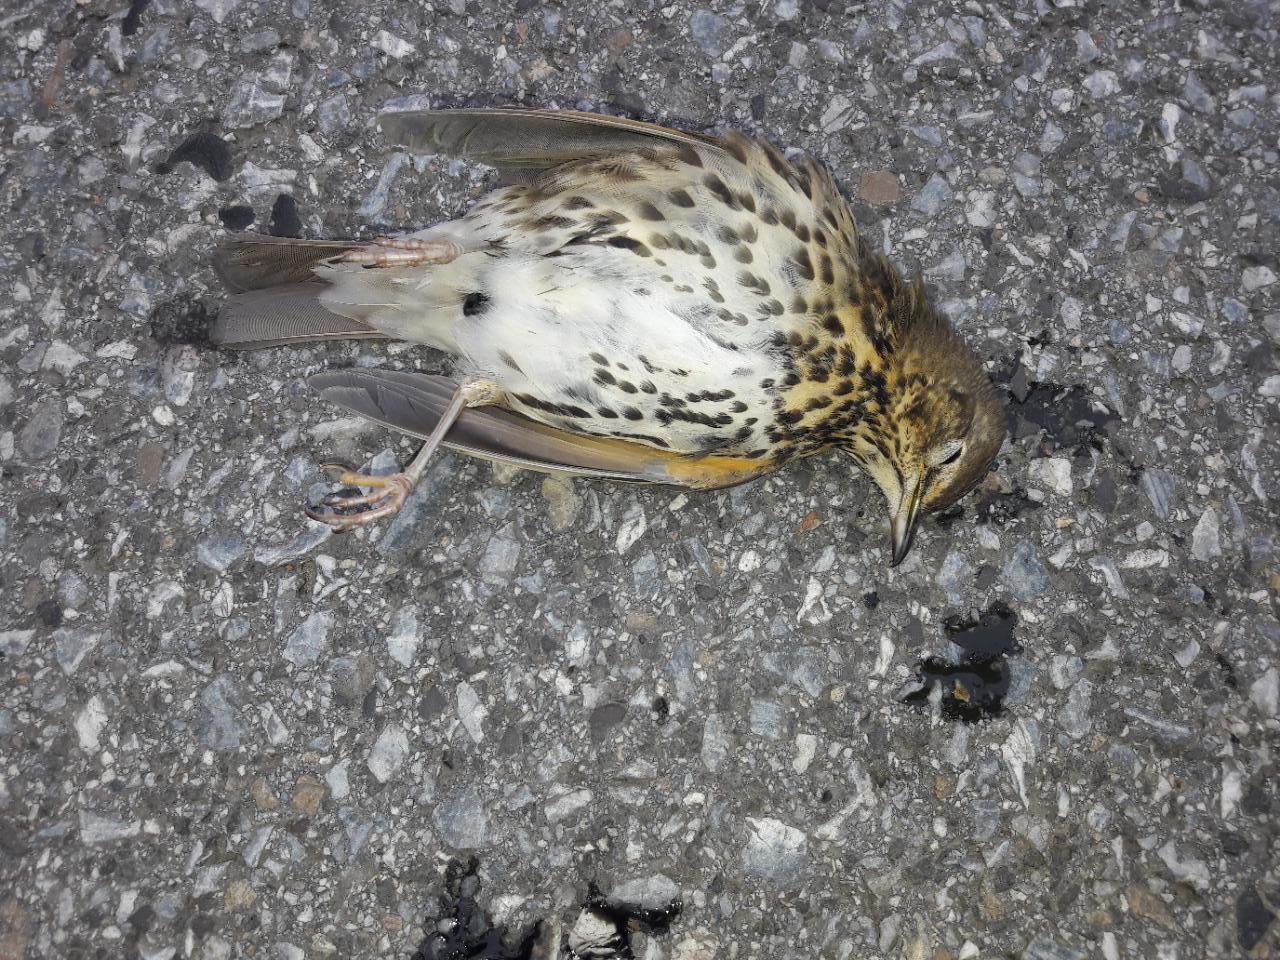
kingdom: Animalia
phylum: Chordata
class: Aves
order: Passeriformes
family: Turdidae
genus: Turdus
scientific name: Turdus philomelos
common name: Song thrush
